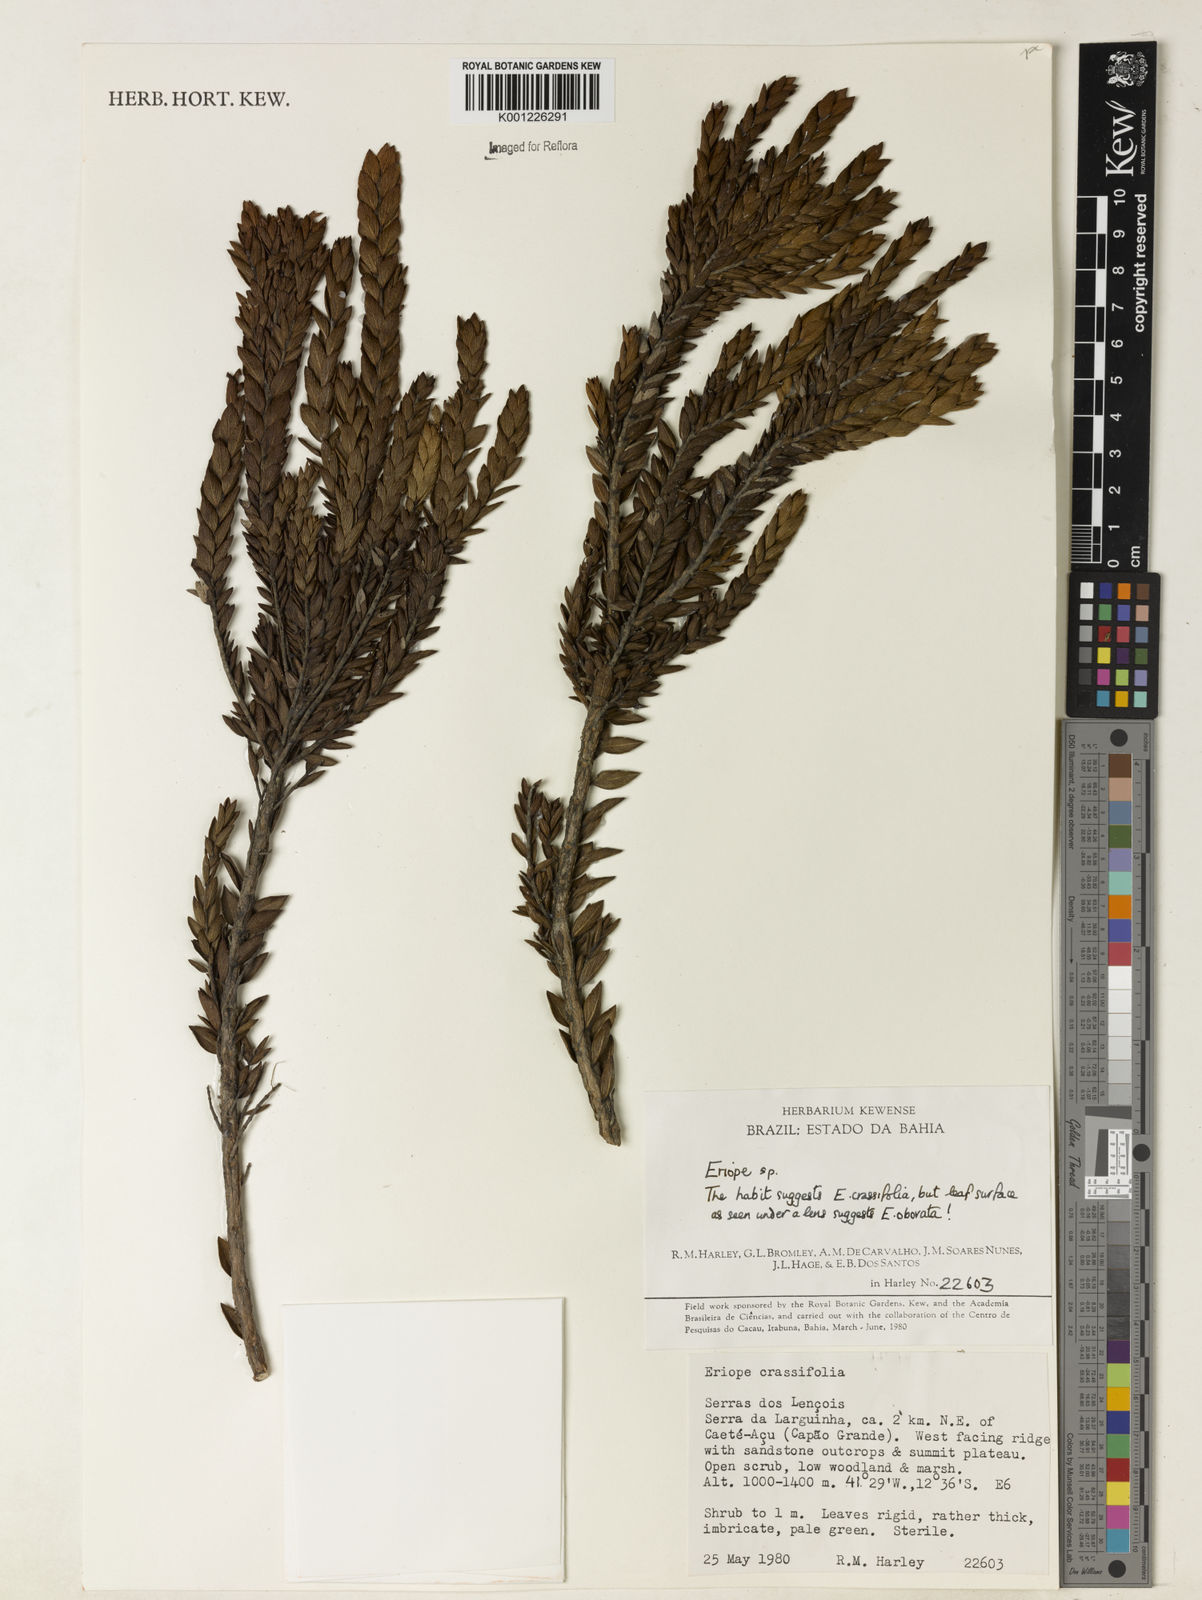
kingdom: Plantae
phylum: Tracheophyta
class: Magnoliopsida
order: Lamiales
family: Lamiaceae
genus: Eriope
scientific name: Eriope crassifolia
